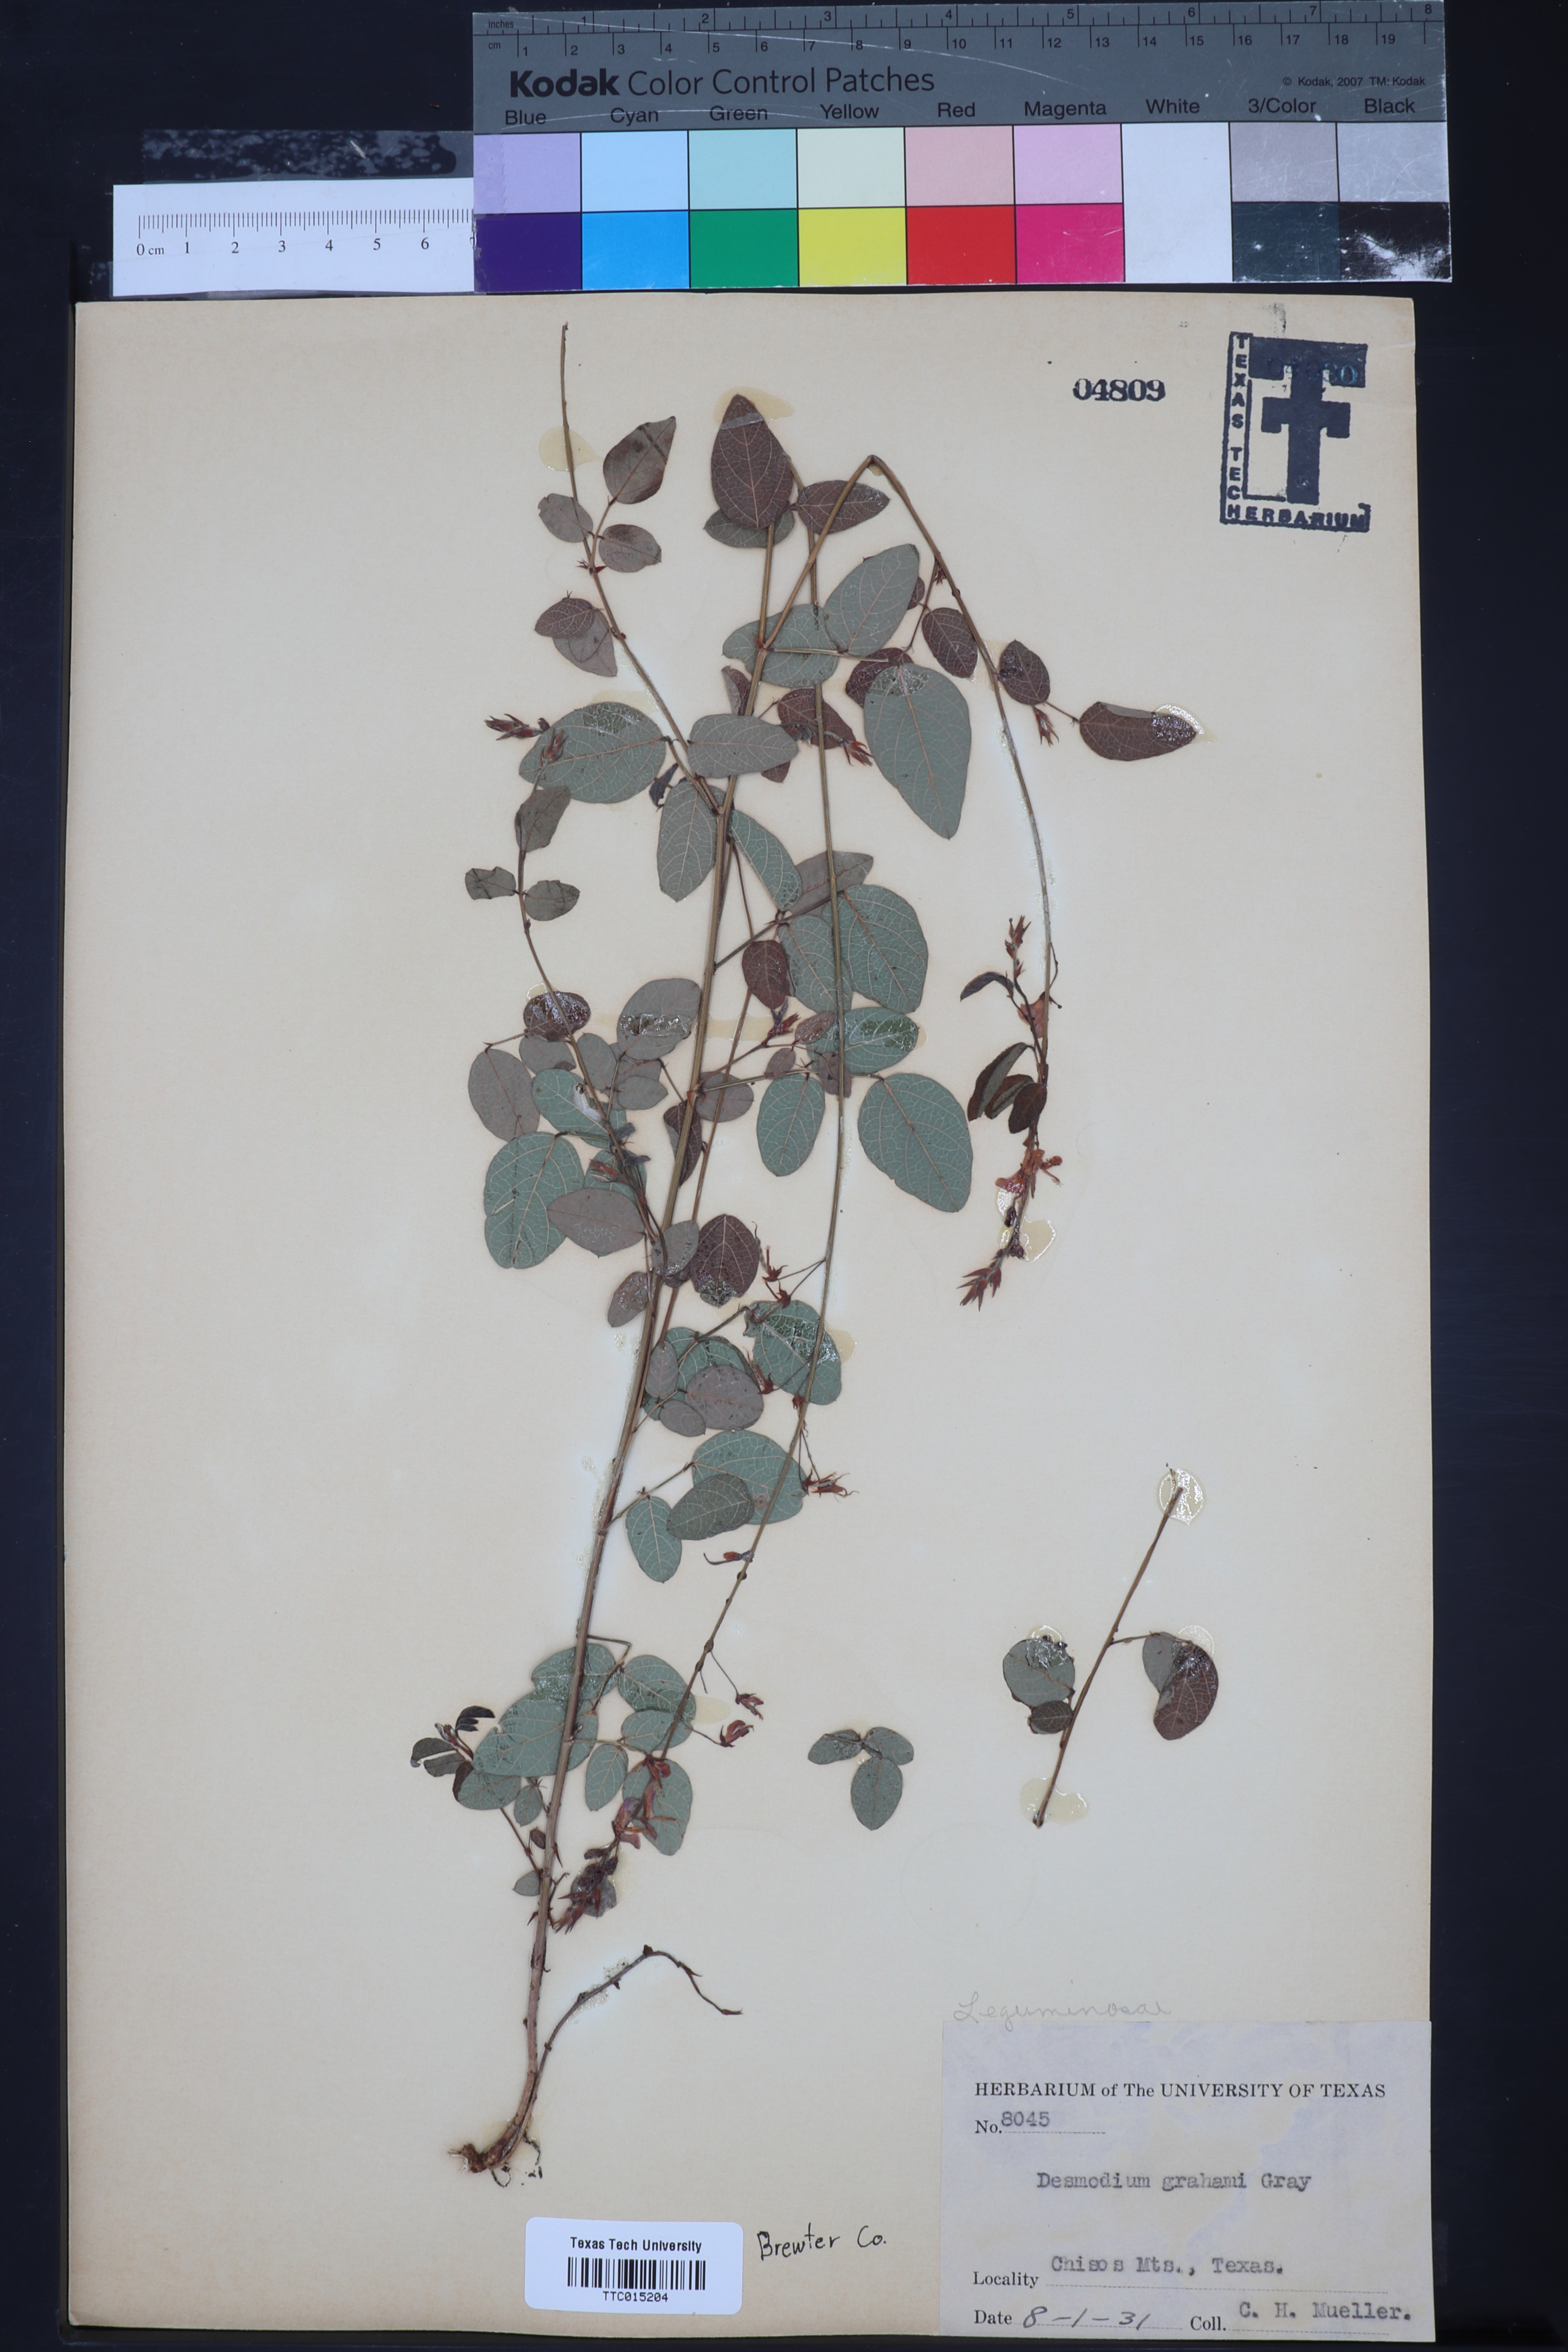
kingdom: Plantae
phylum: Tracheophyta
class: Magnoliopsida
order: Fabales
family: Fabaceae
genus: Desmodium
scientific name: Desmodium grahamii
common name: Graham's tick-trefoil
